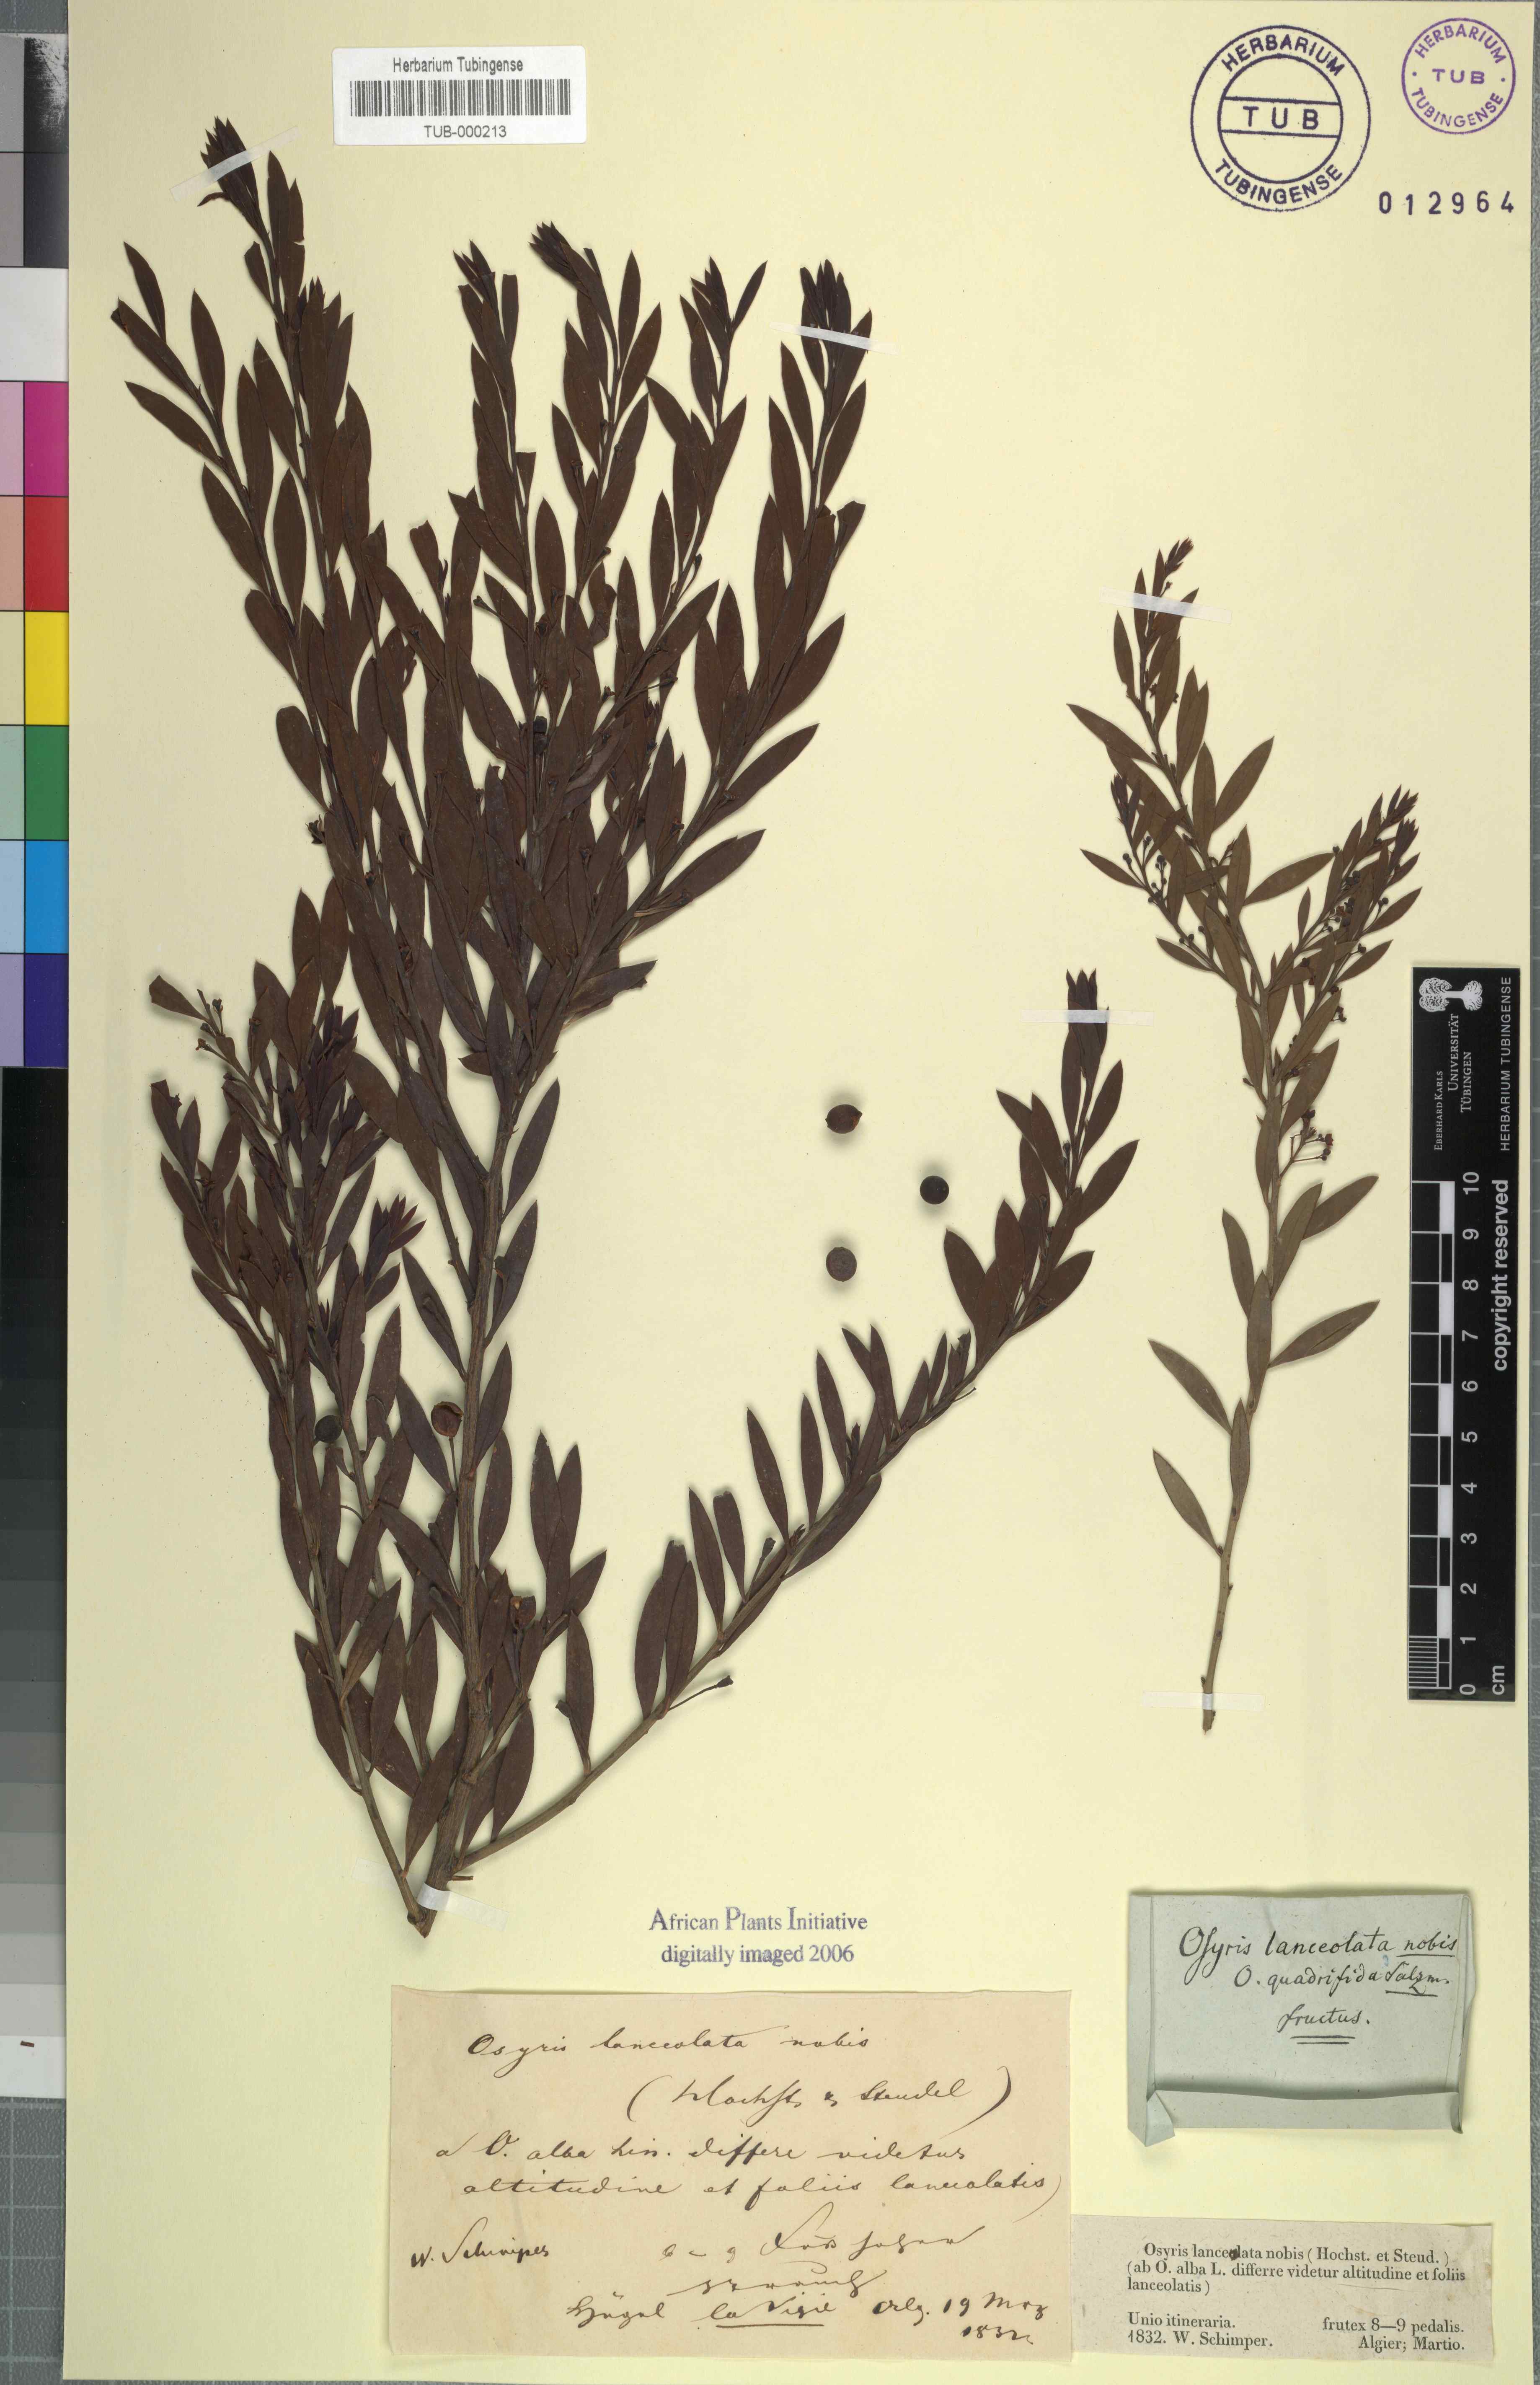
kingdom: Plantae
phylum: Tracheophyta
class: Magnoliopsida
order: Santalales
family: Santalaceae
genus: Osyris
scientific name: Osyris quadripartita
